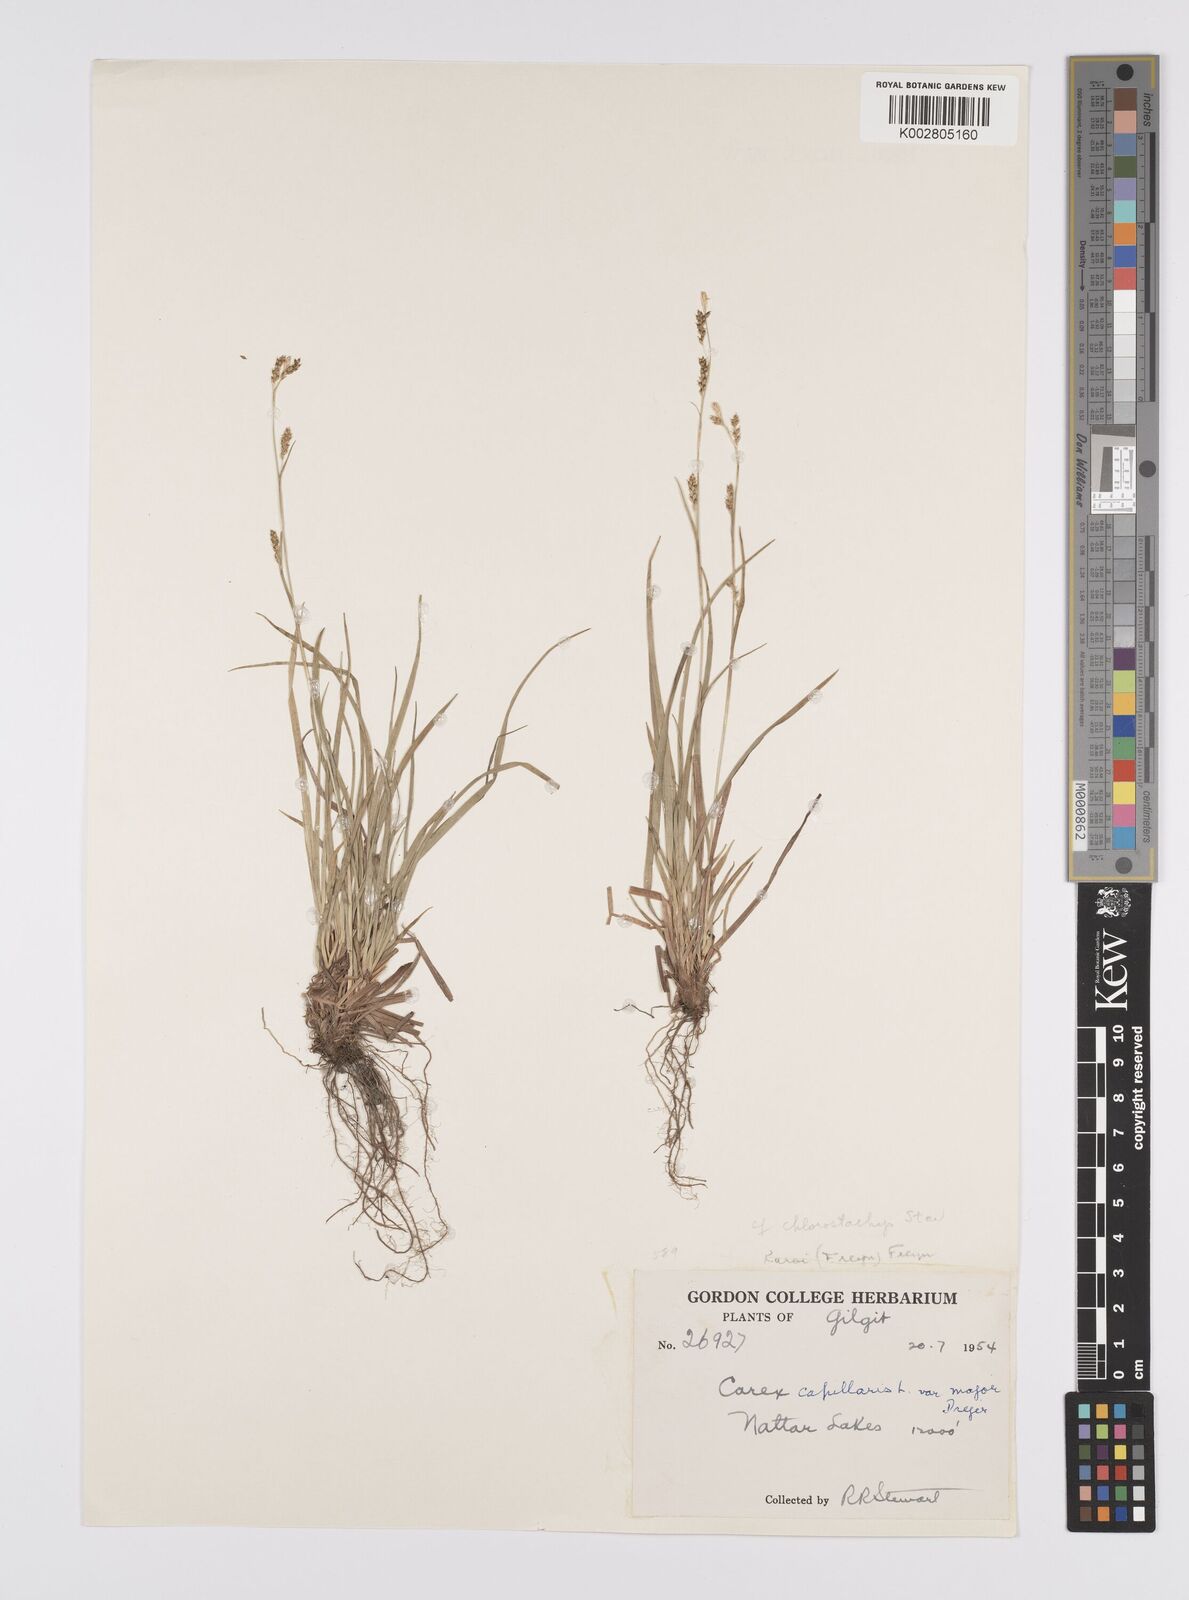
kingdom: Plantae
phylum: Tracheophyta
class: Liliopsida
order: Poales
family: Cyperaceae
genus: Carex
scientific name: Carex chlorostachys
